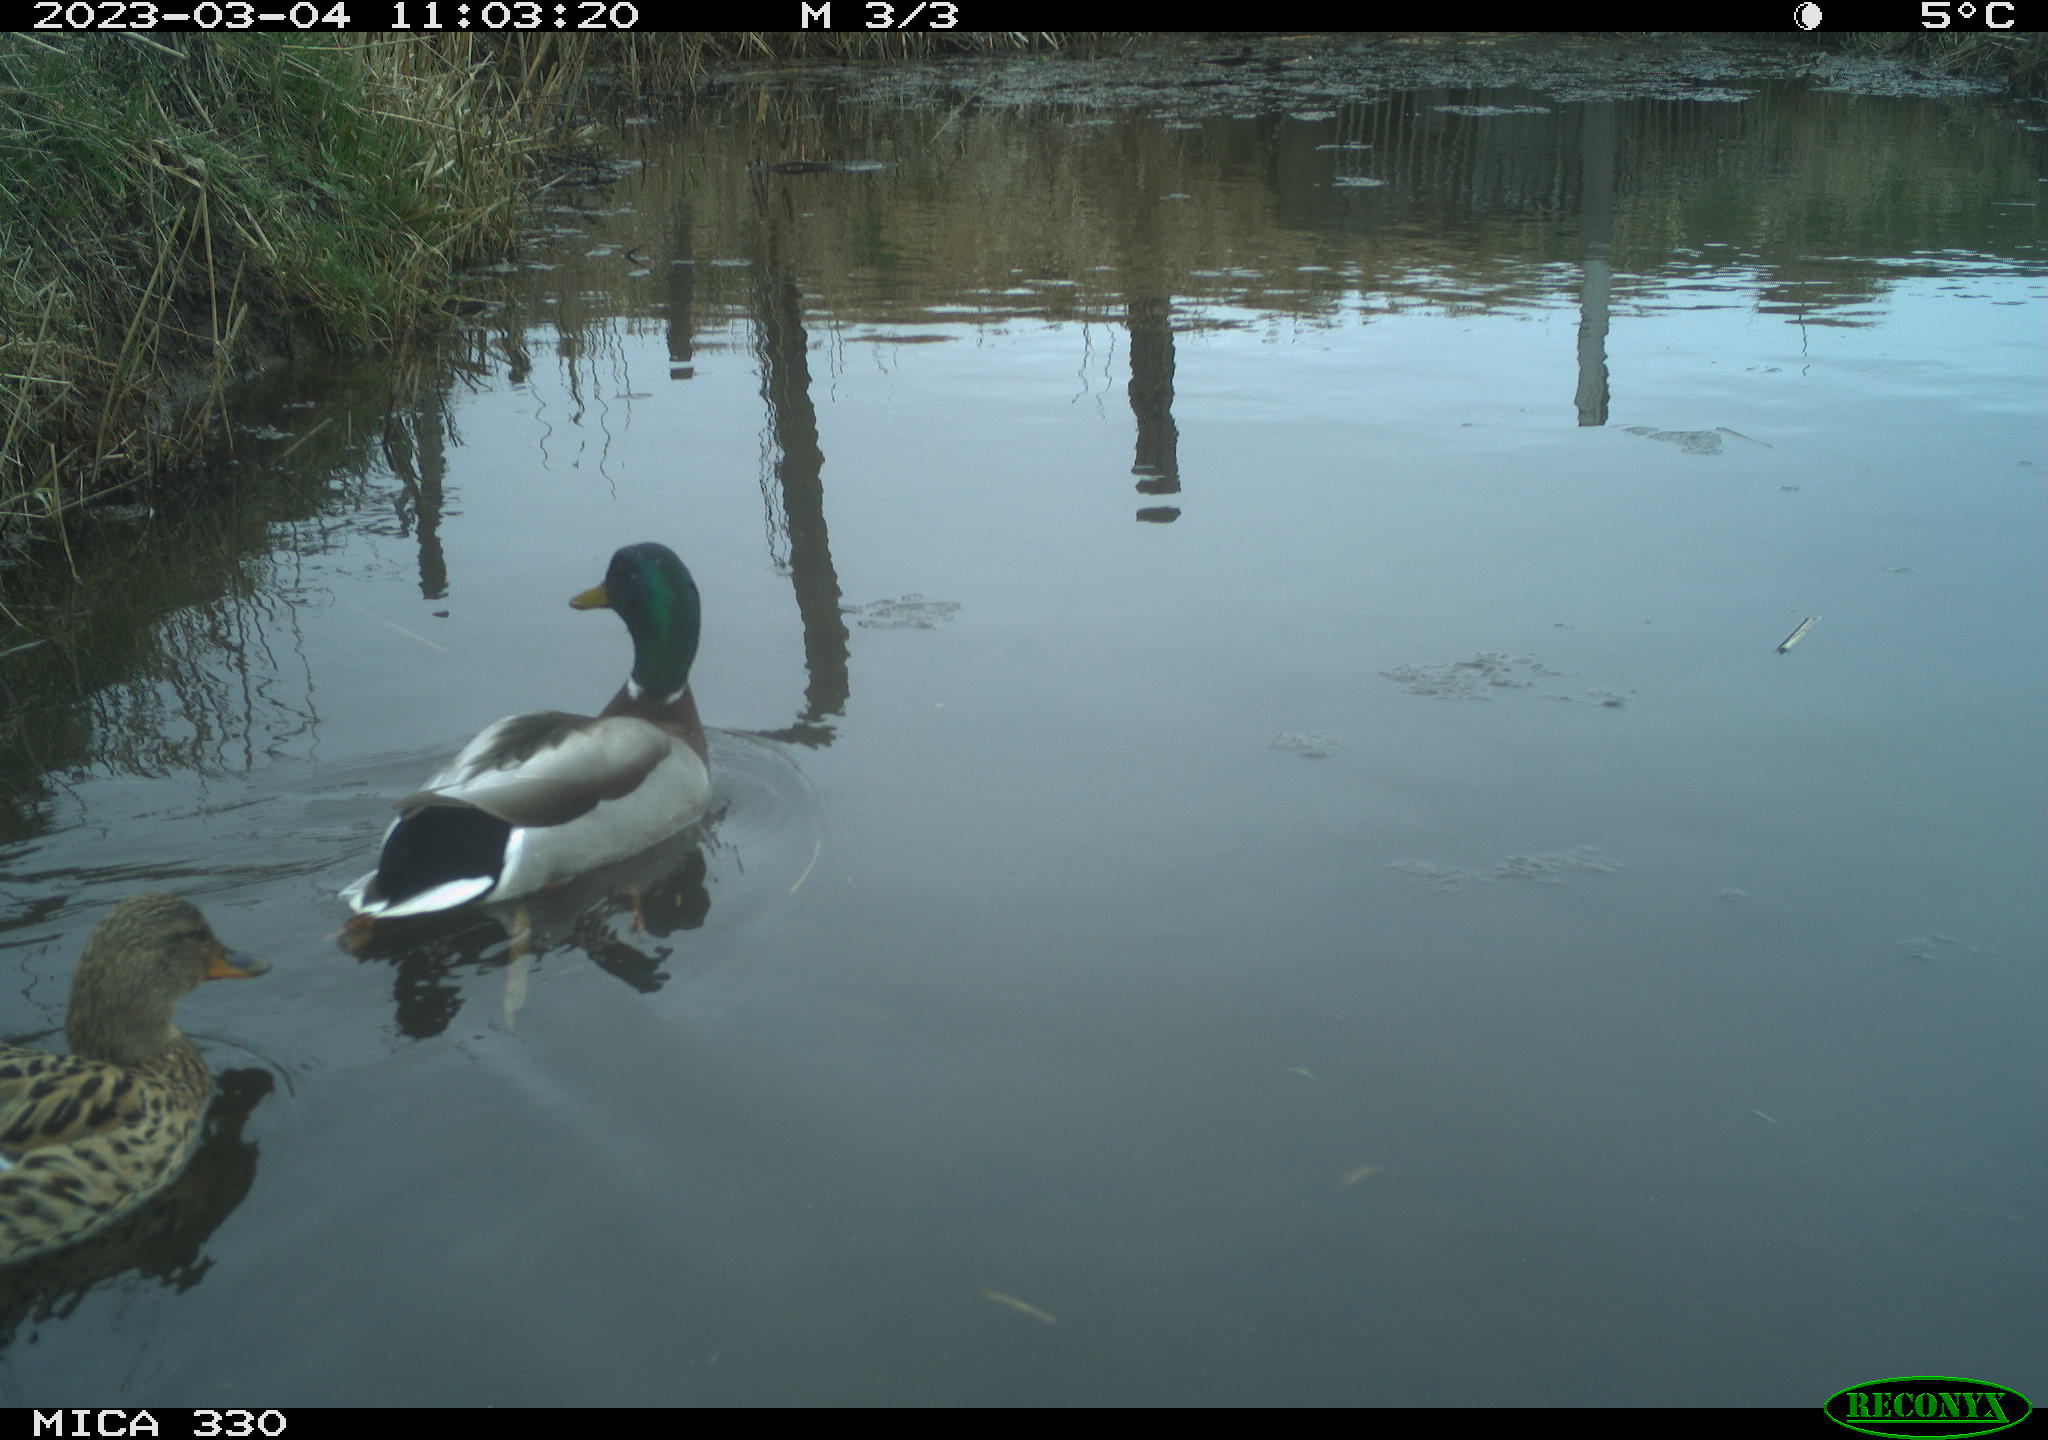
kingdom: Animalia
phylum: Chordata
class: Aves
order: Anseriformes
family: Anatidae
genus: Anas
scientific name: Anas
